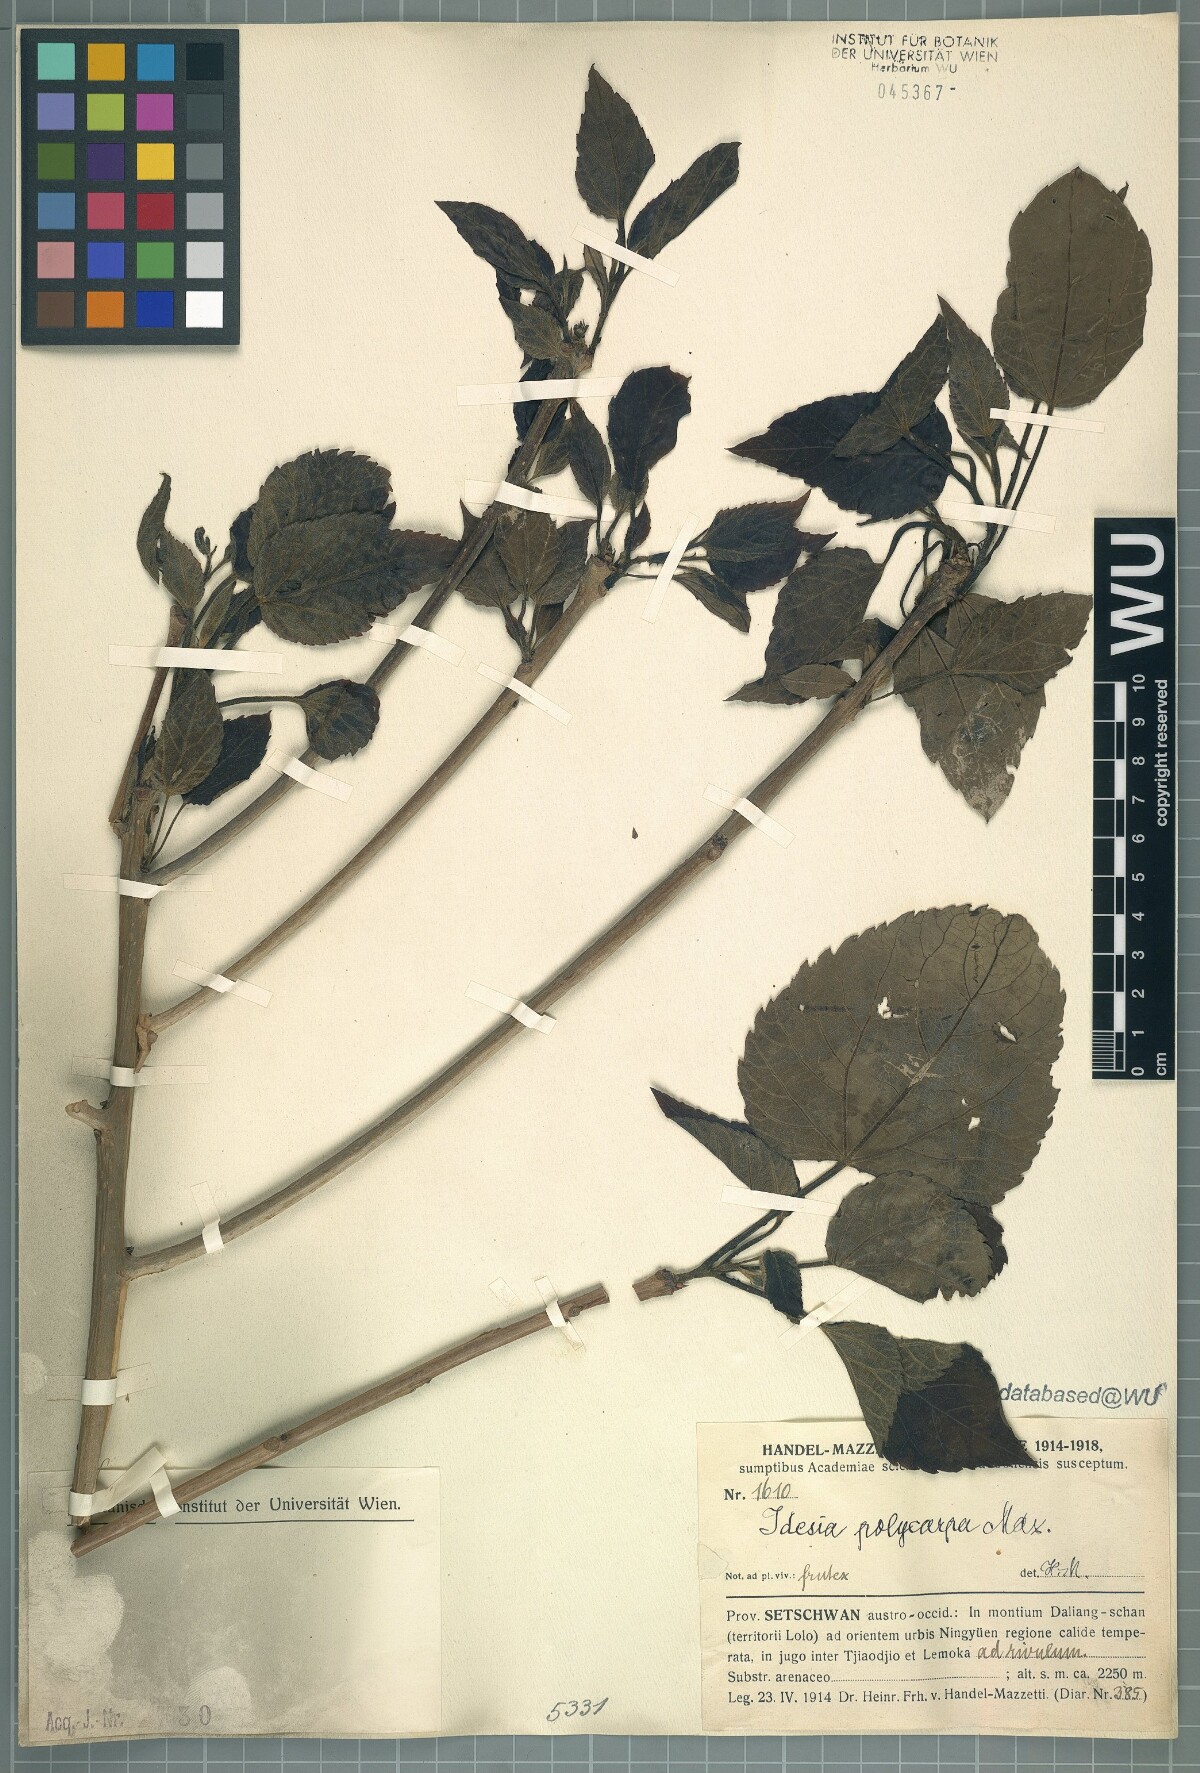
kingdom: Plantae
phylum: Tracheophyta
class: Magnoliopsida
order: Malpighiales
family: Salicaceae
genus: Idesia
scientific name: Idesia polycarpa
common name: Idesia tree
